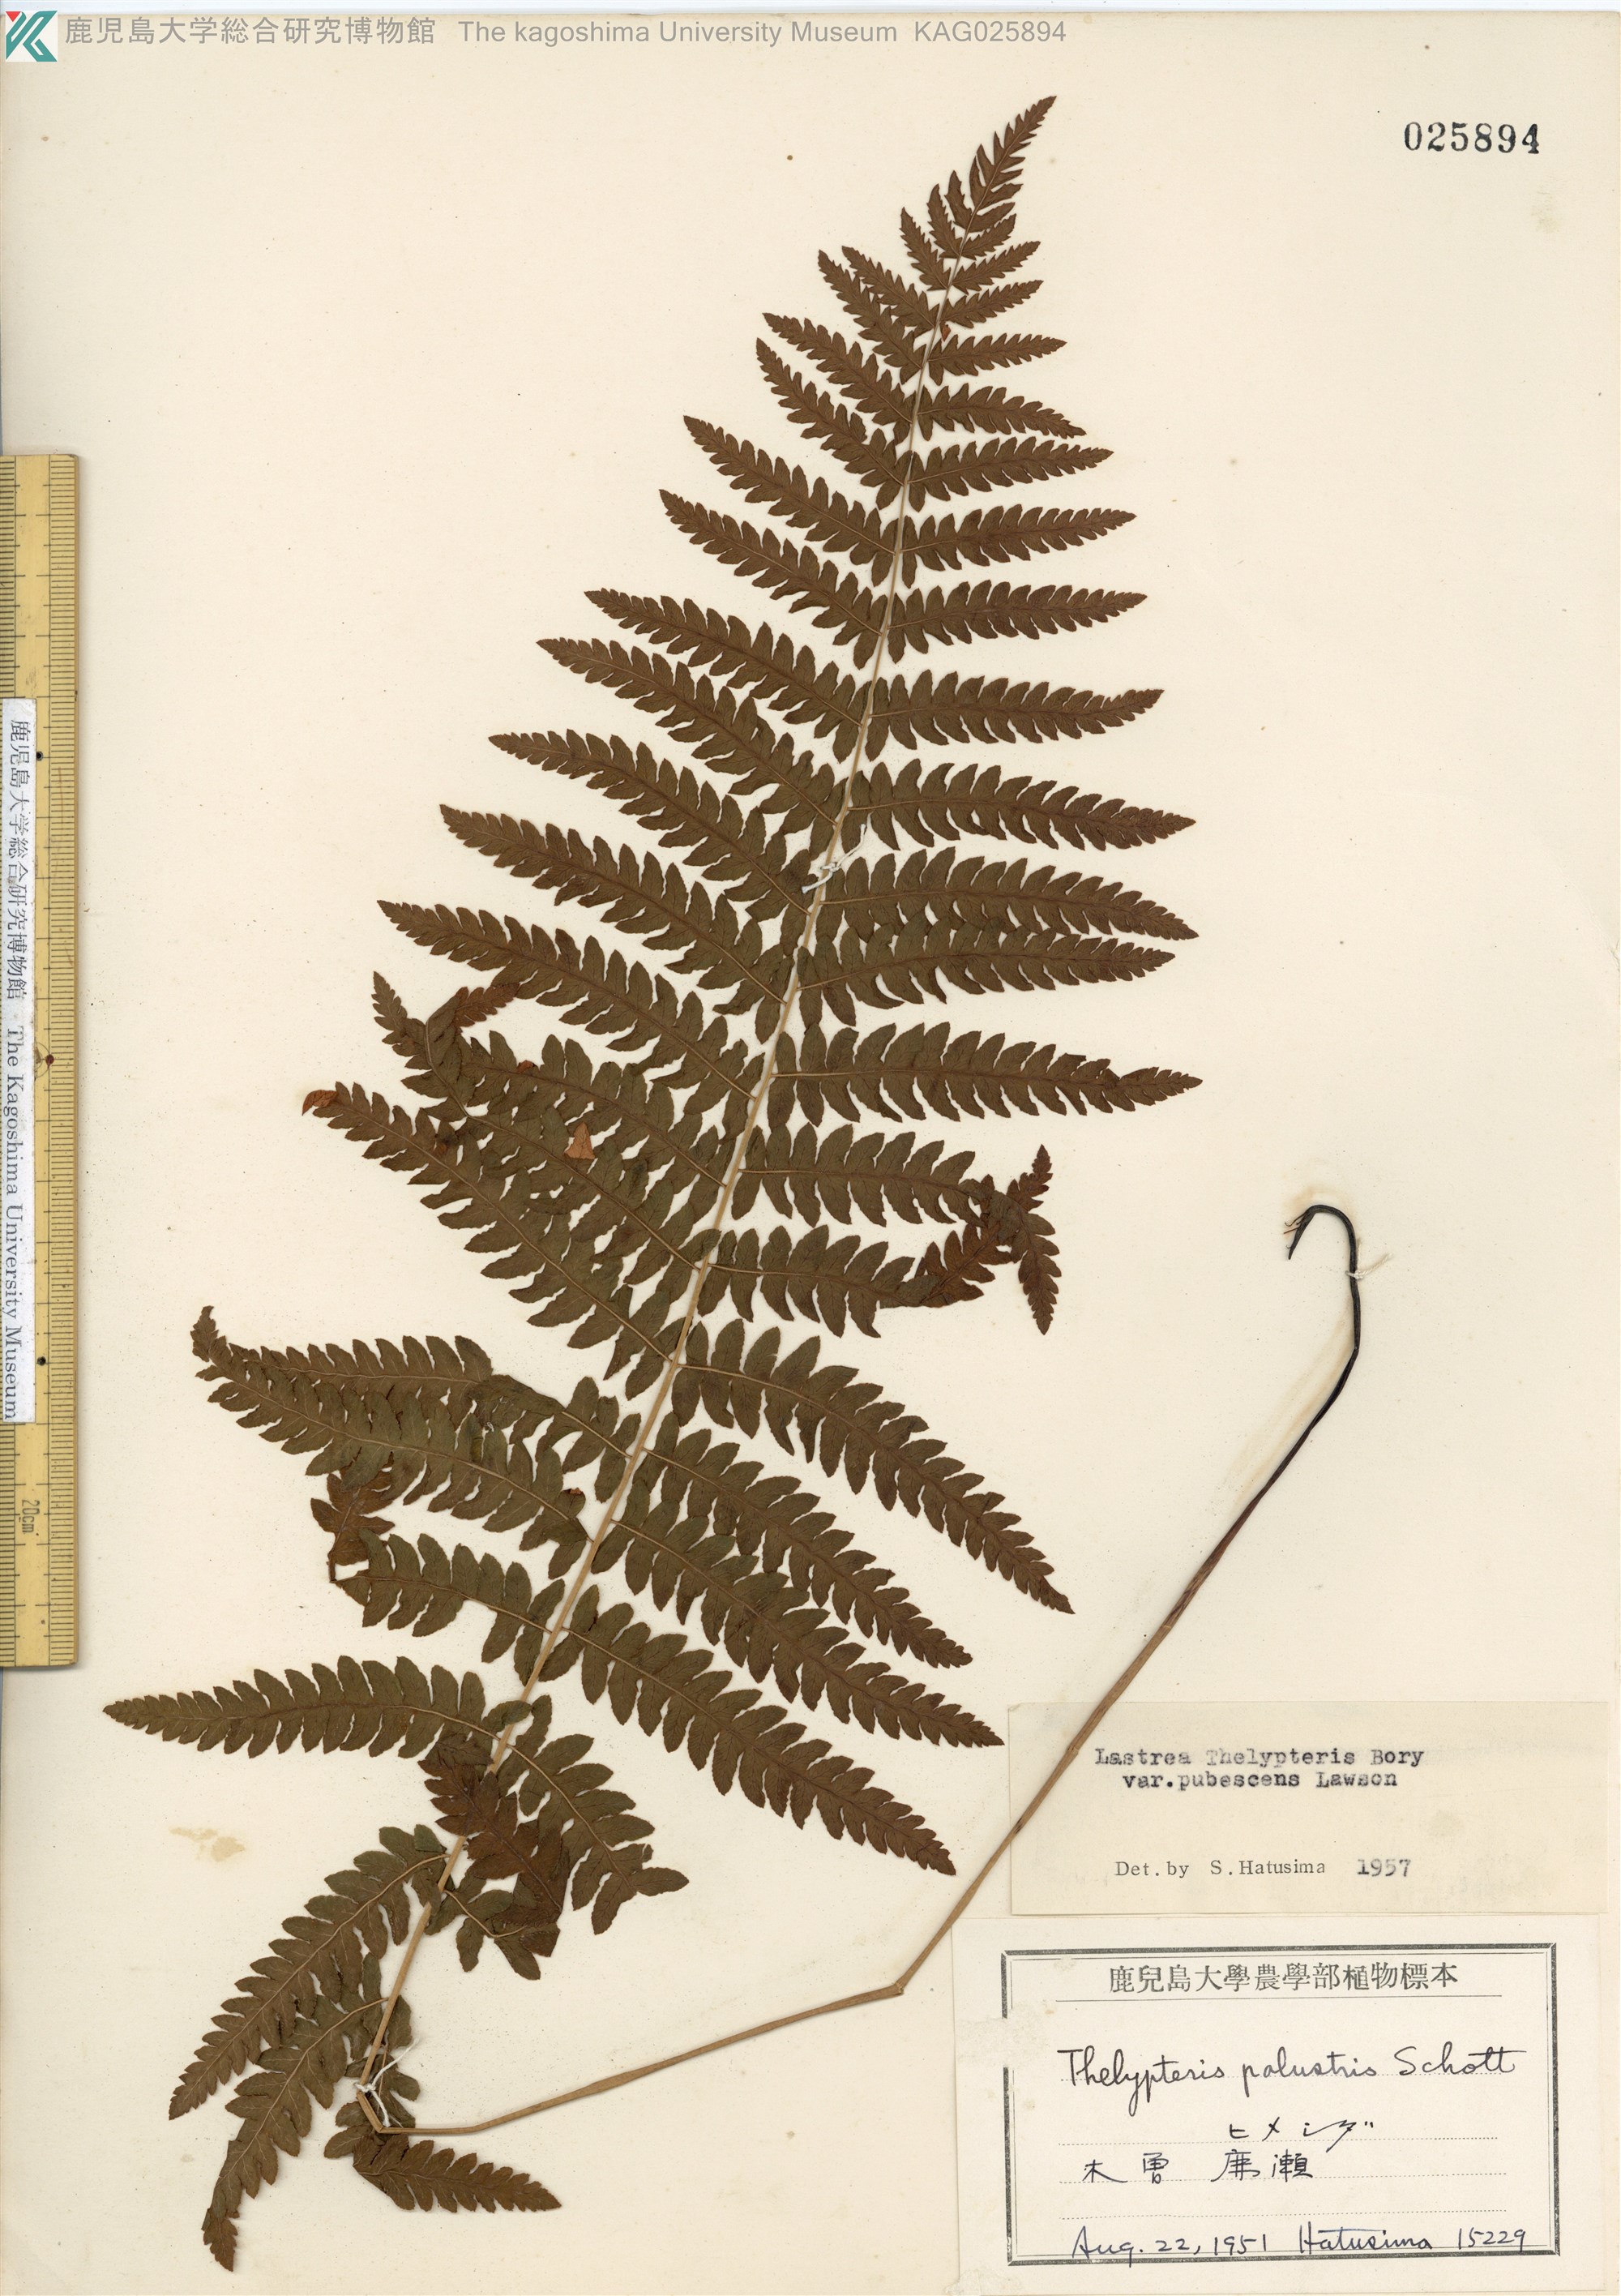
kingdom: Plantae
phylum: Tracheophyta
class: Polypodiopsida
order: Polypodiales
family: Thelypteridaceae
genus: Thelypteris
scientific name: Thelypteris palustris
